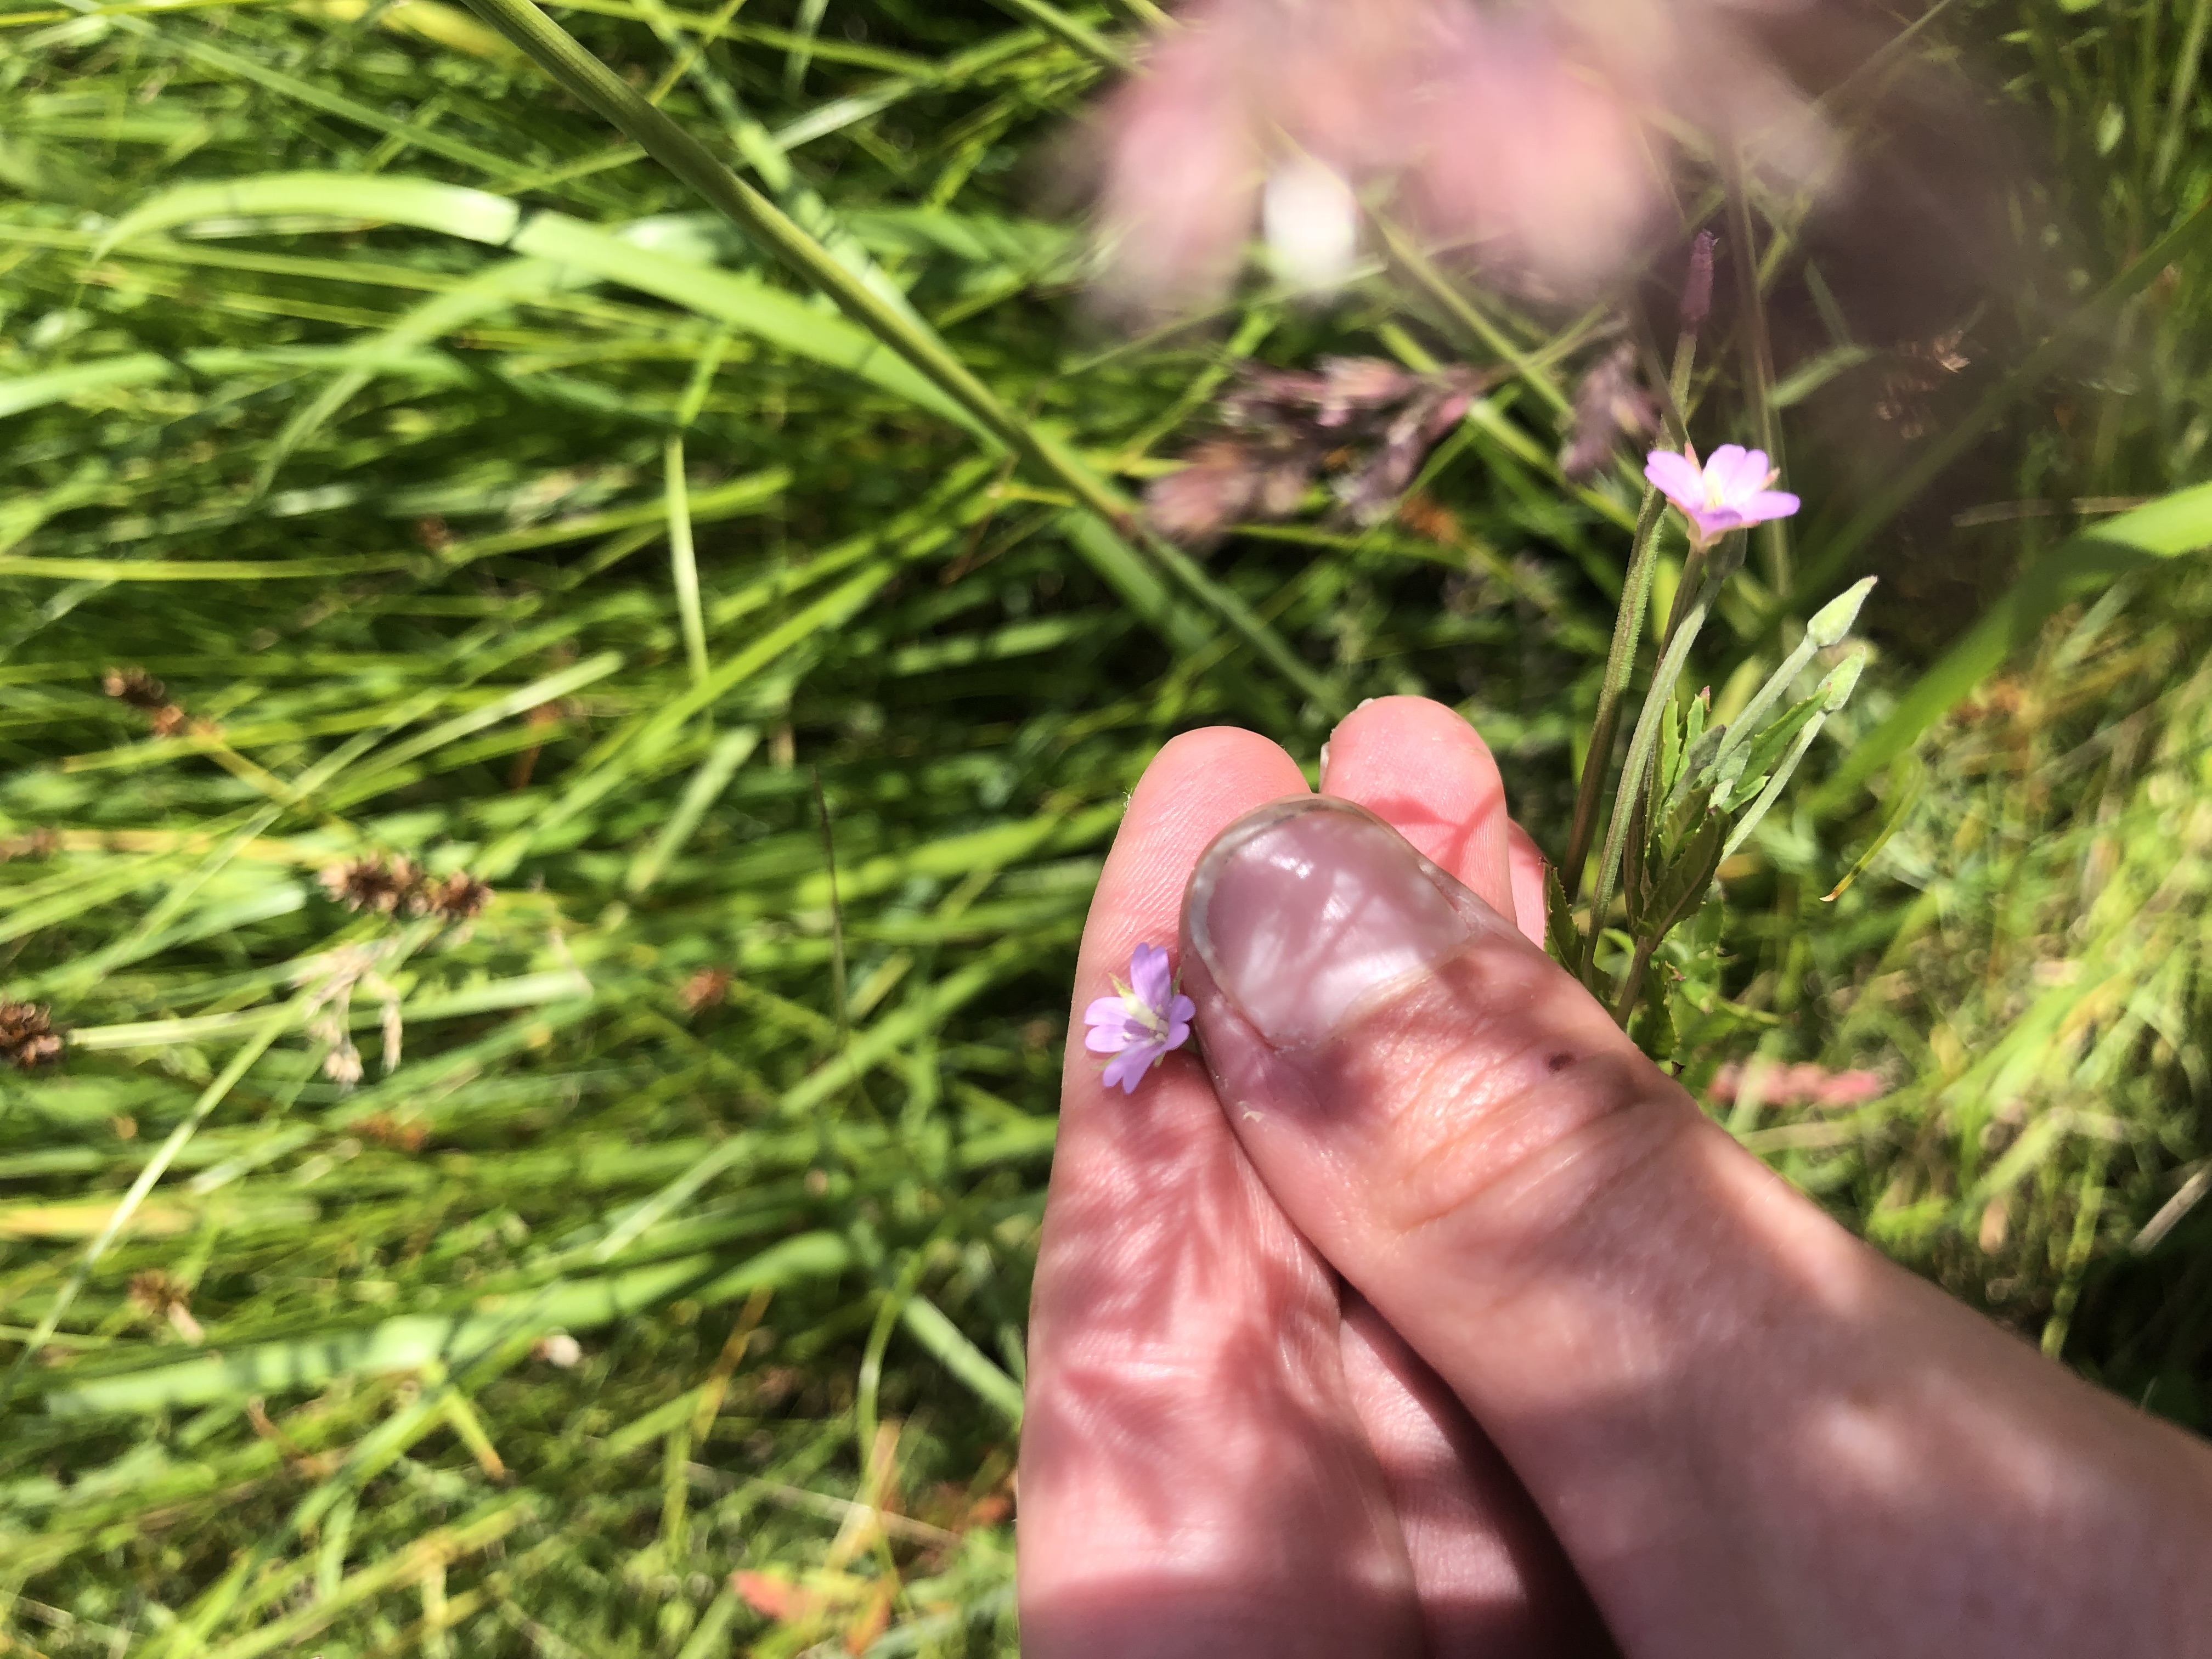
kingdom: Plantae
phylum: Tracheophyta
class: Magnoliopsida
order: Myrtales
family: Onagraceae
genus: Epilobium
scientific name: Epilobium tetragonum
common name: Kantet dueurt
